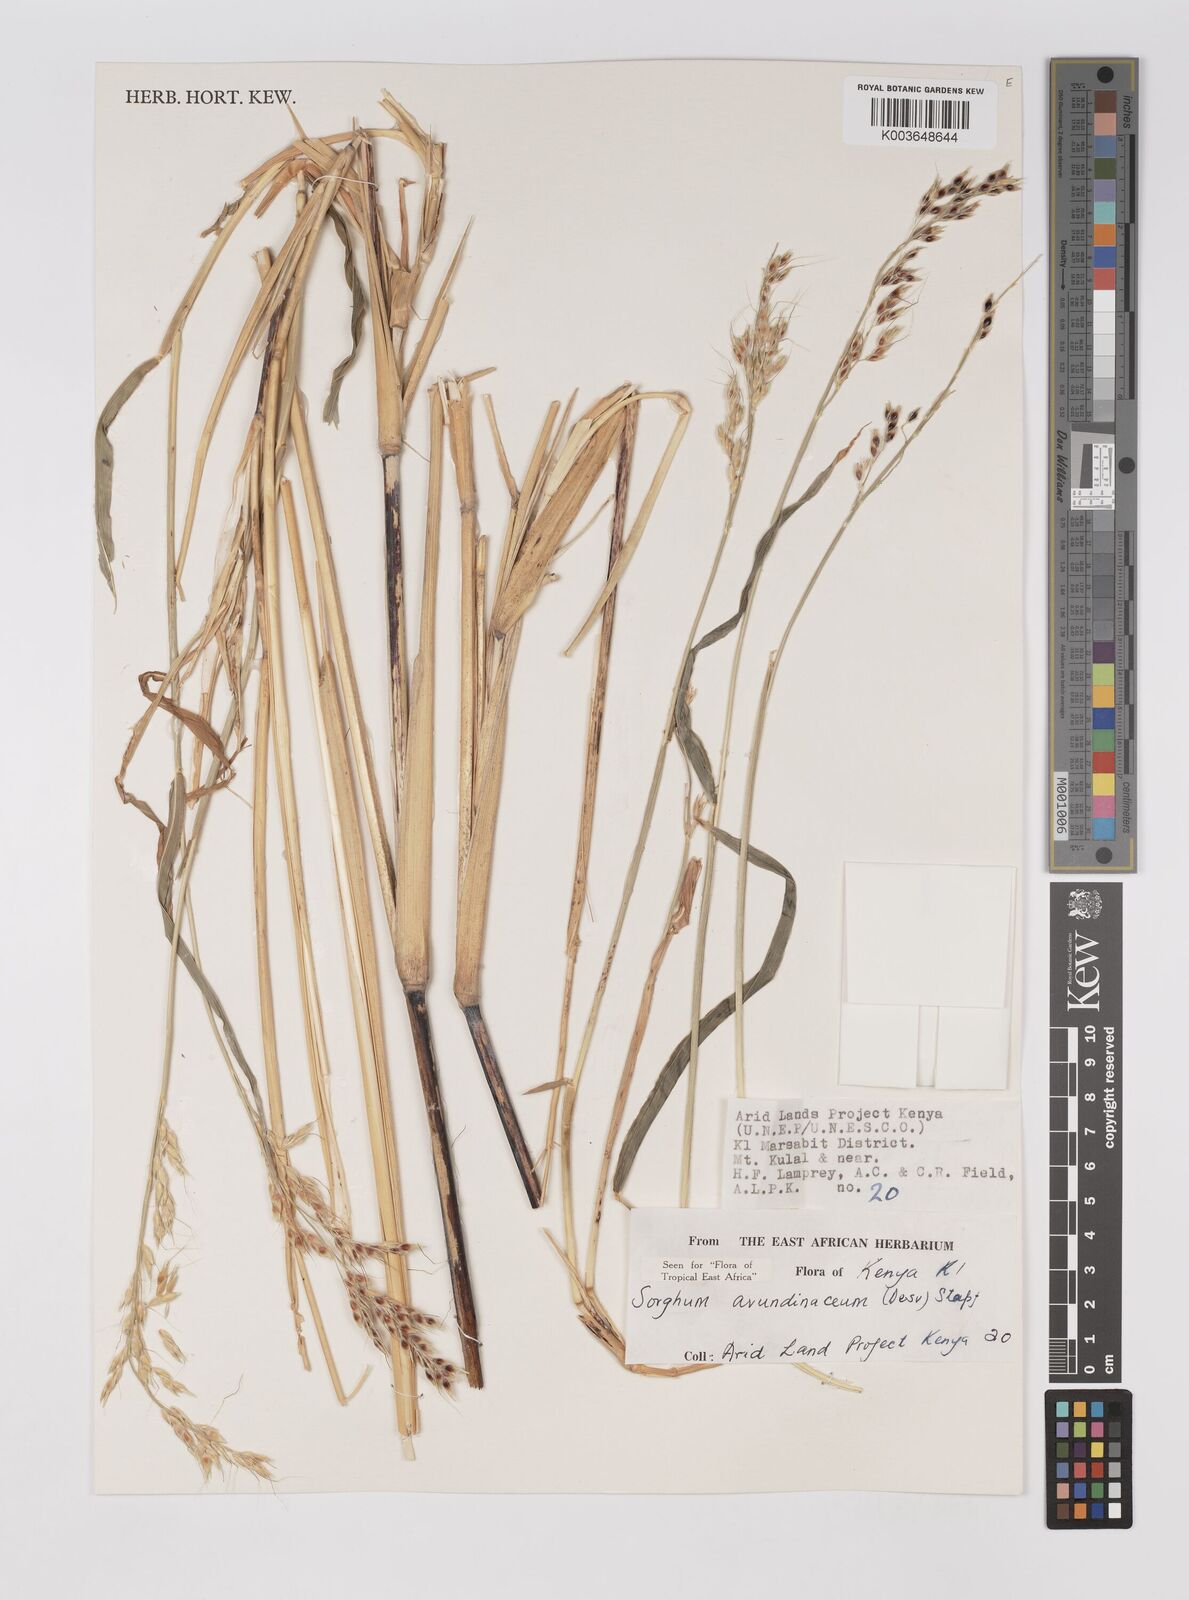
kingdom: Plantae
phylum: Tracheophyta
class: Liliopsida
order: Poales
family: Poaceae
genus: Sorghum
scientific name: Sorghum arundinaceum
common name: Sorghum
